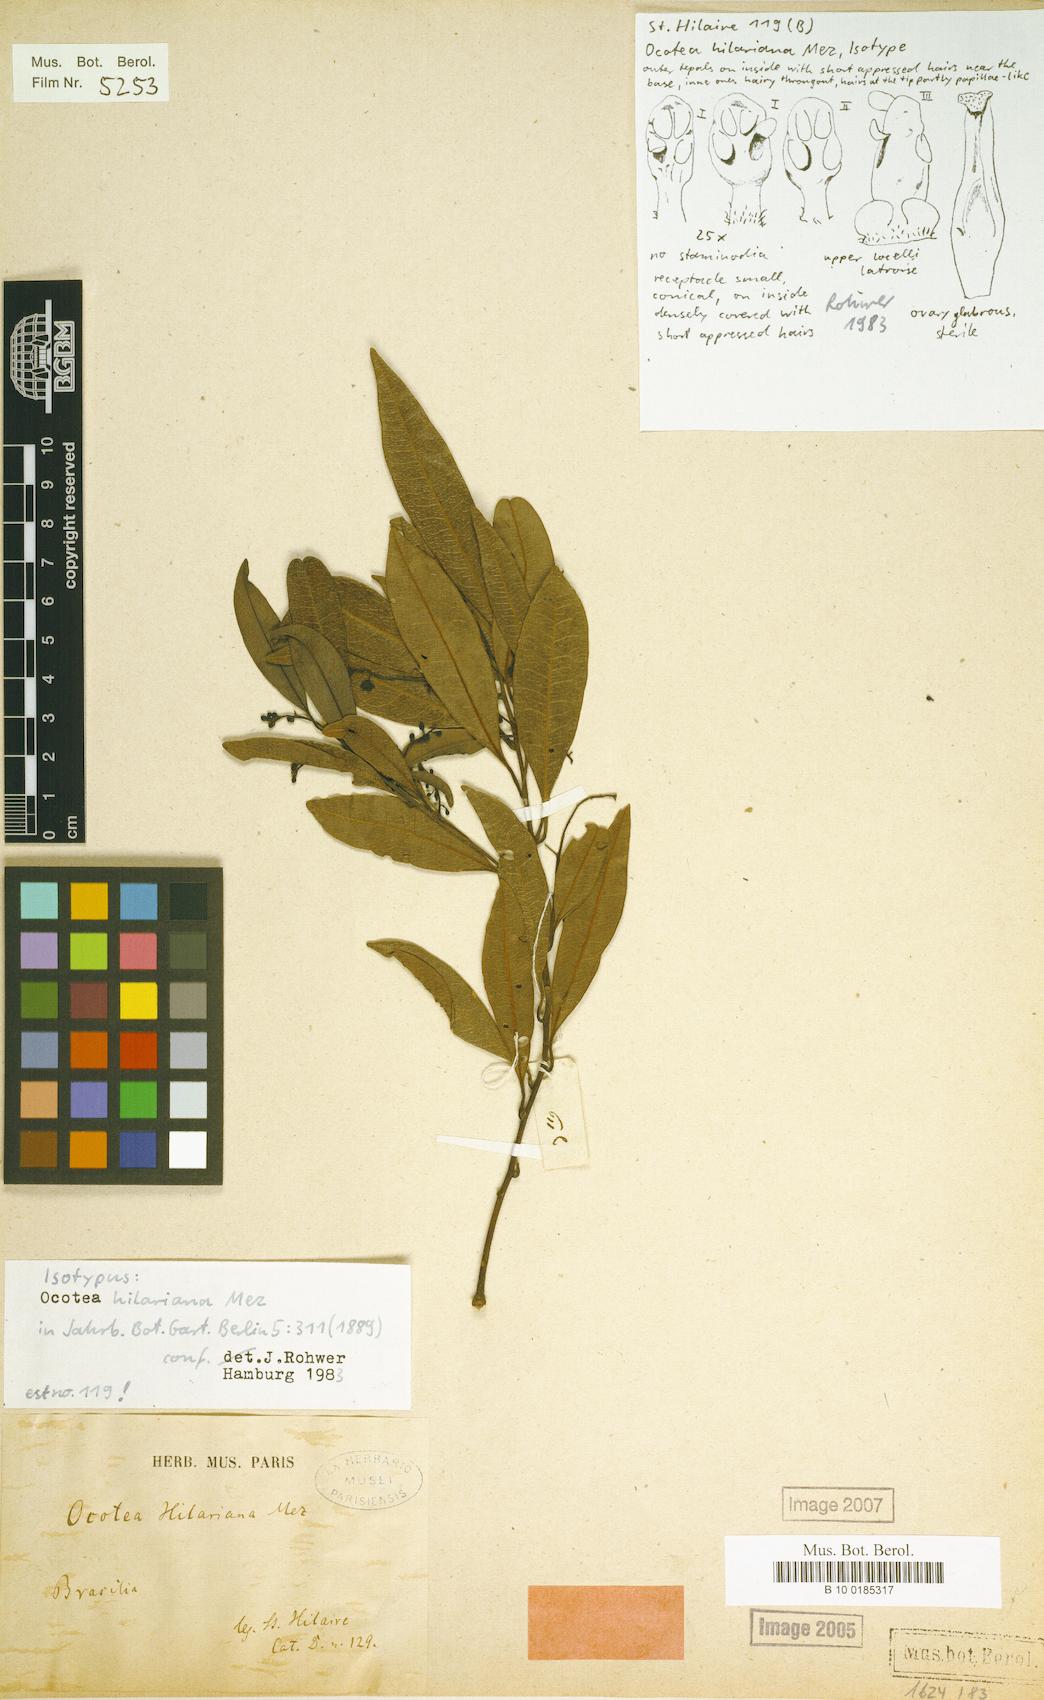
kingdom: Plantae
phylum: Tracheophyta
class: Magnoliopsida
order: Laurales
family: Lauraceae
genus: Ocotea
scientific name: Ocotea hilariana
